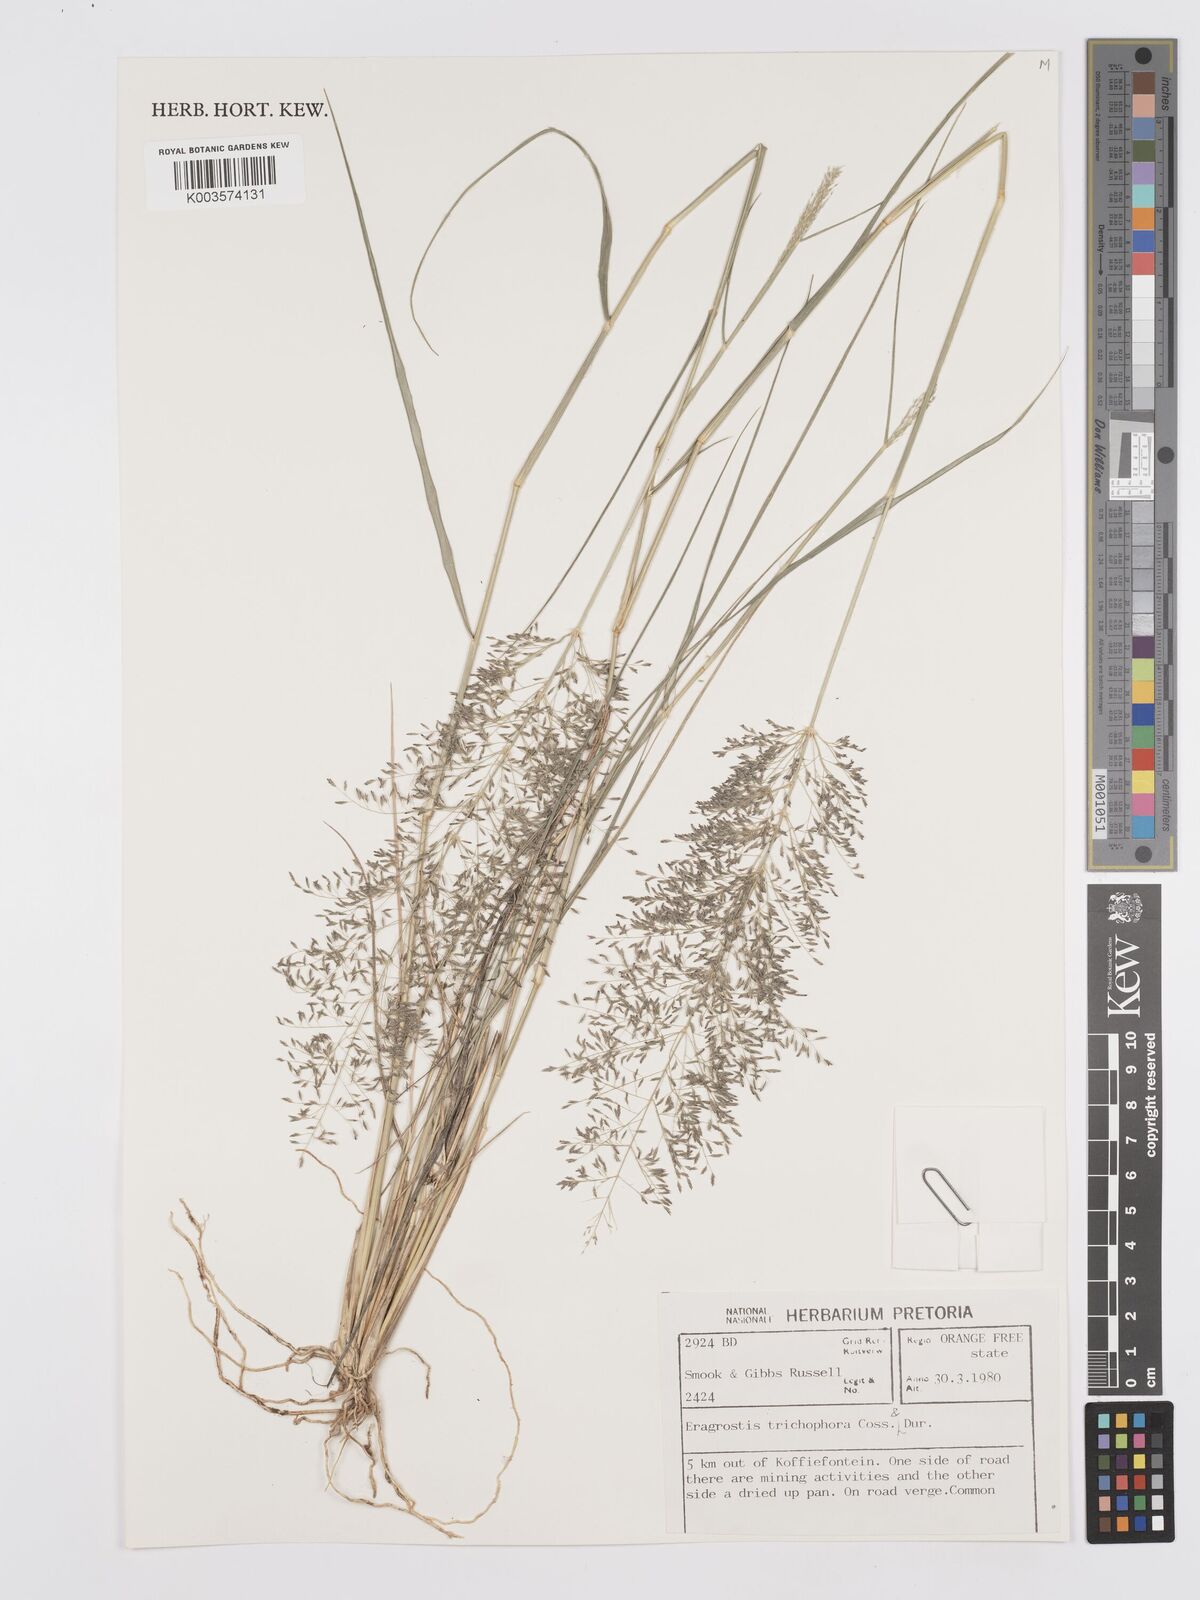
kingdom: Plantae
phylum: Tracheophyta
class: Liliopsida
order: Poales
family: Poaceae
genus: Eragrostis
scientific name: Eragrostis cylindriflora
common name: Cylinderflower lovegrass
